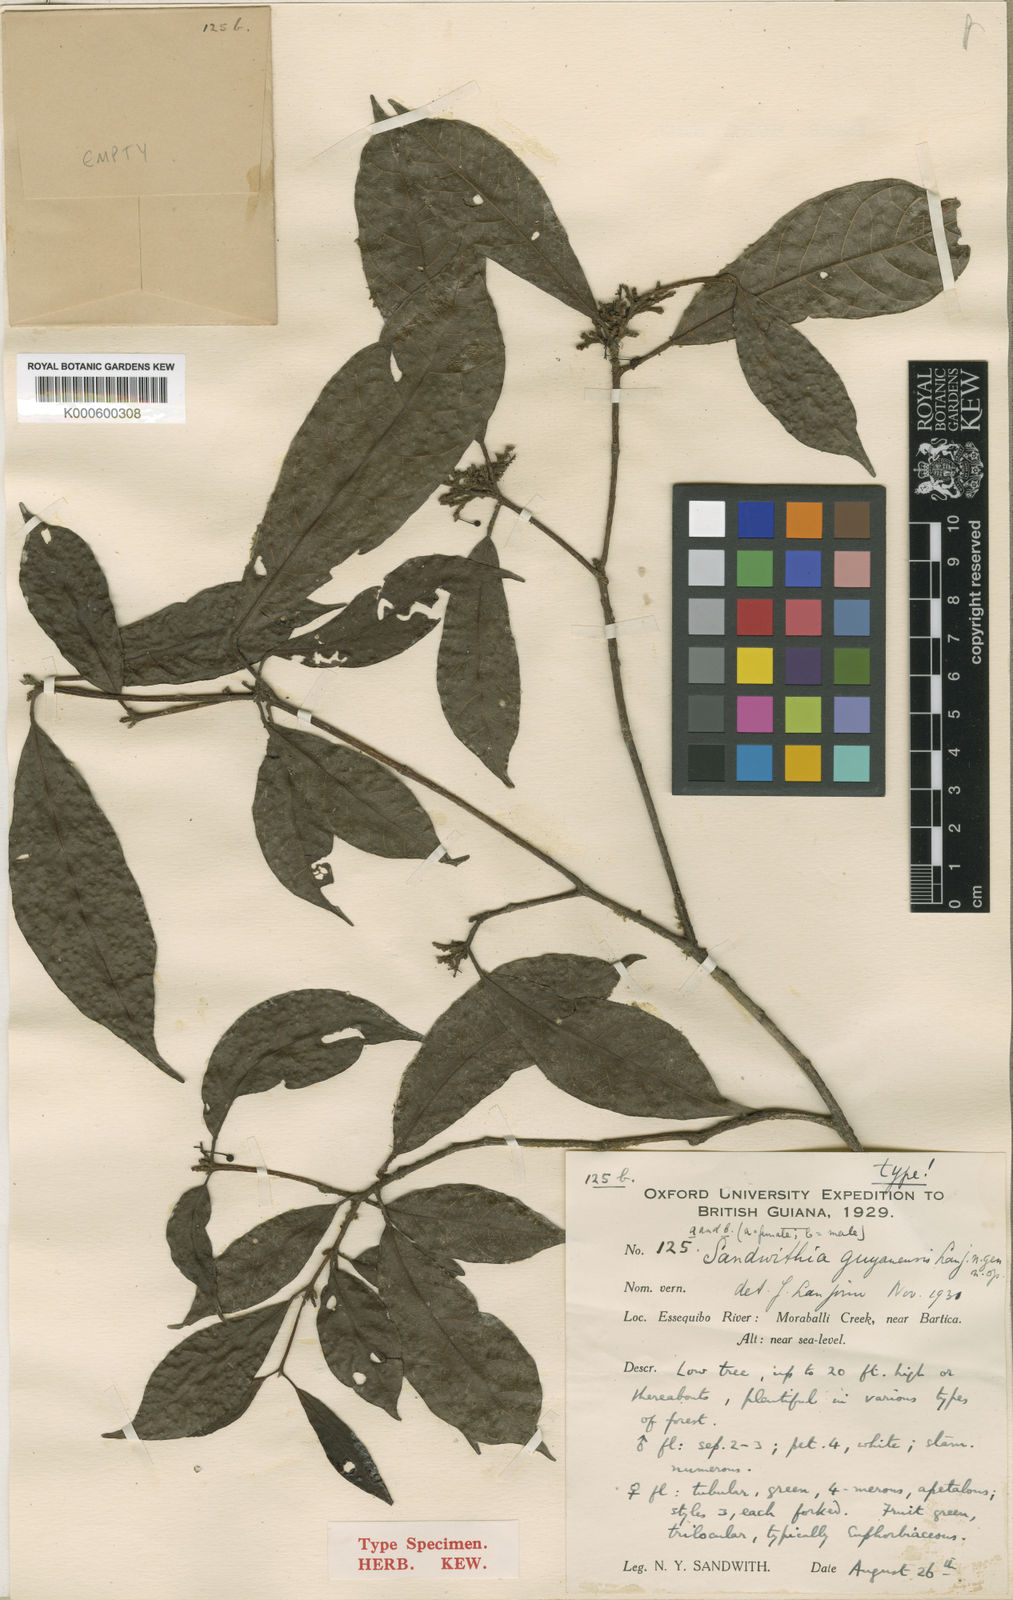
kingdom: Plantae
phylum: Tracheophyta
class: Magnoliopsida
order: Malpighiales
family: Euphorbiaceae
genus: Sandwithia
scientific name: Sandwithia guyanensis
